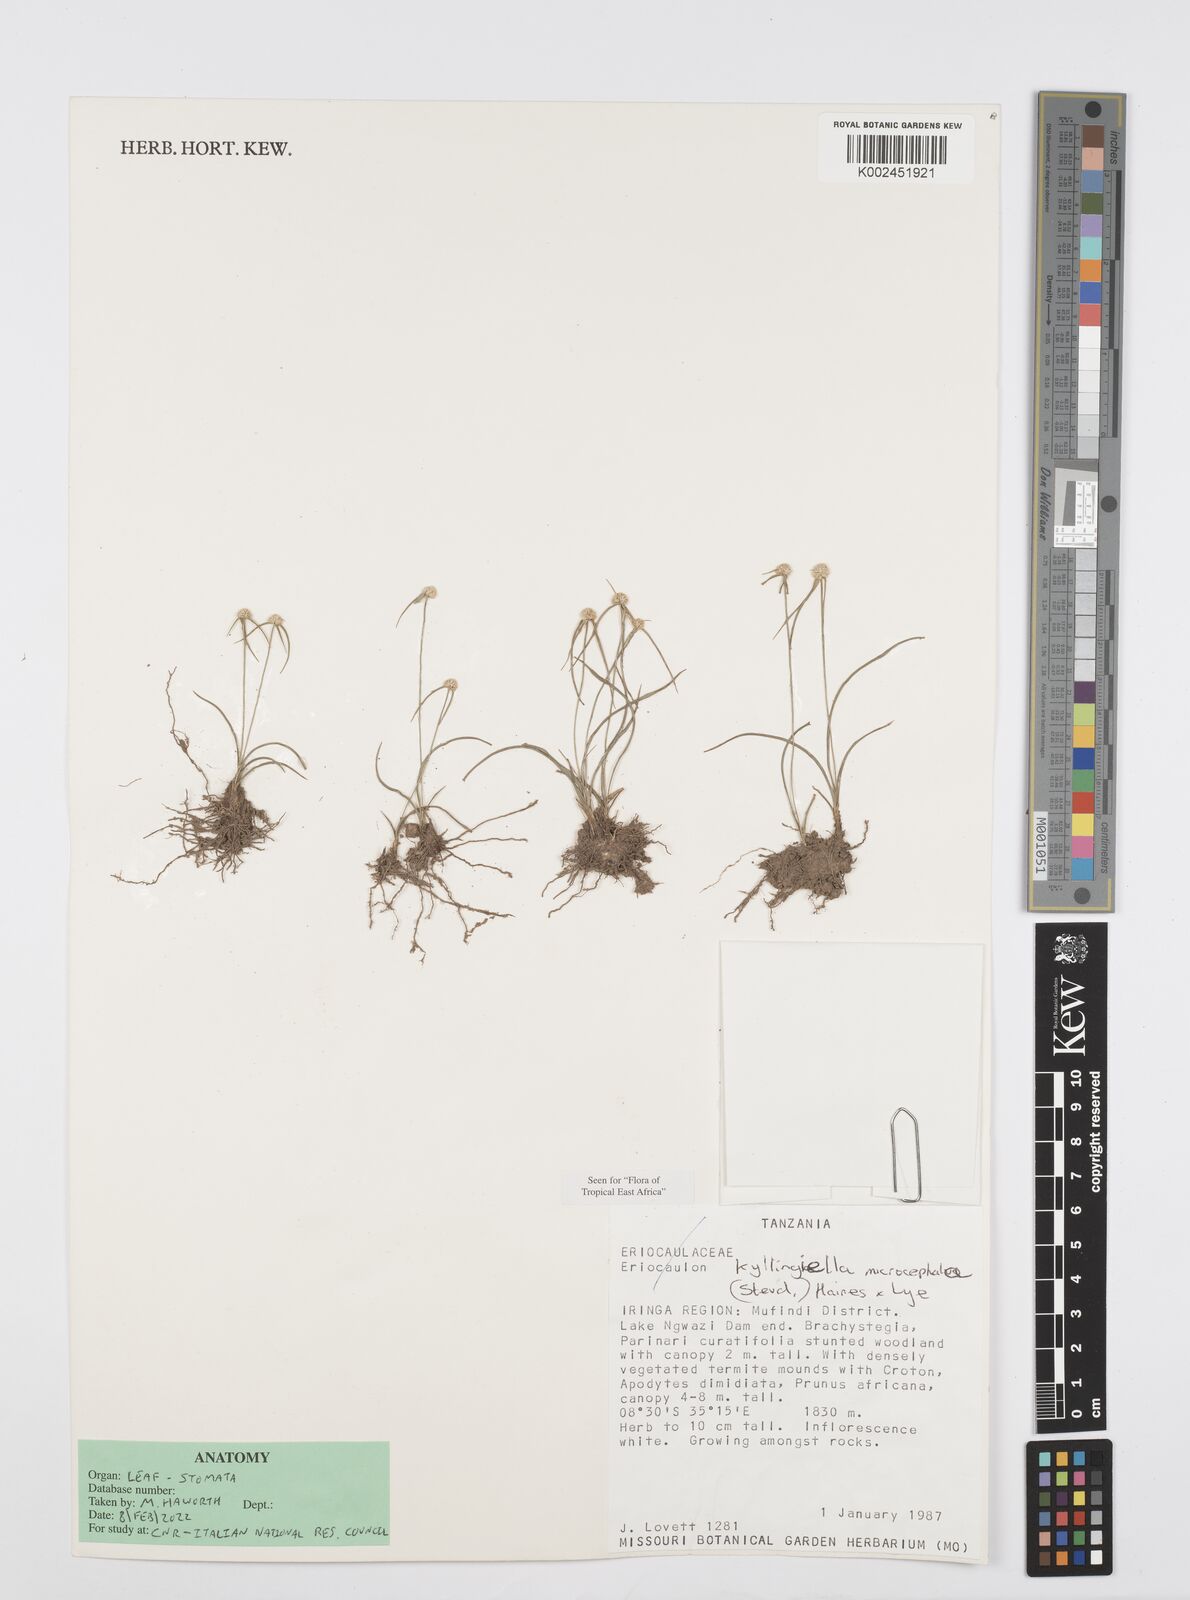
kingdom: Plantae
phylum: Tracheophyta
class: Liliopsida
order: Poales
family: Cyperaceae
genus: Cyperus
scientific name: Cyperus microcephalus
